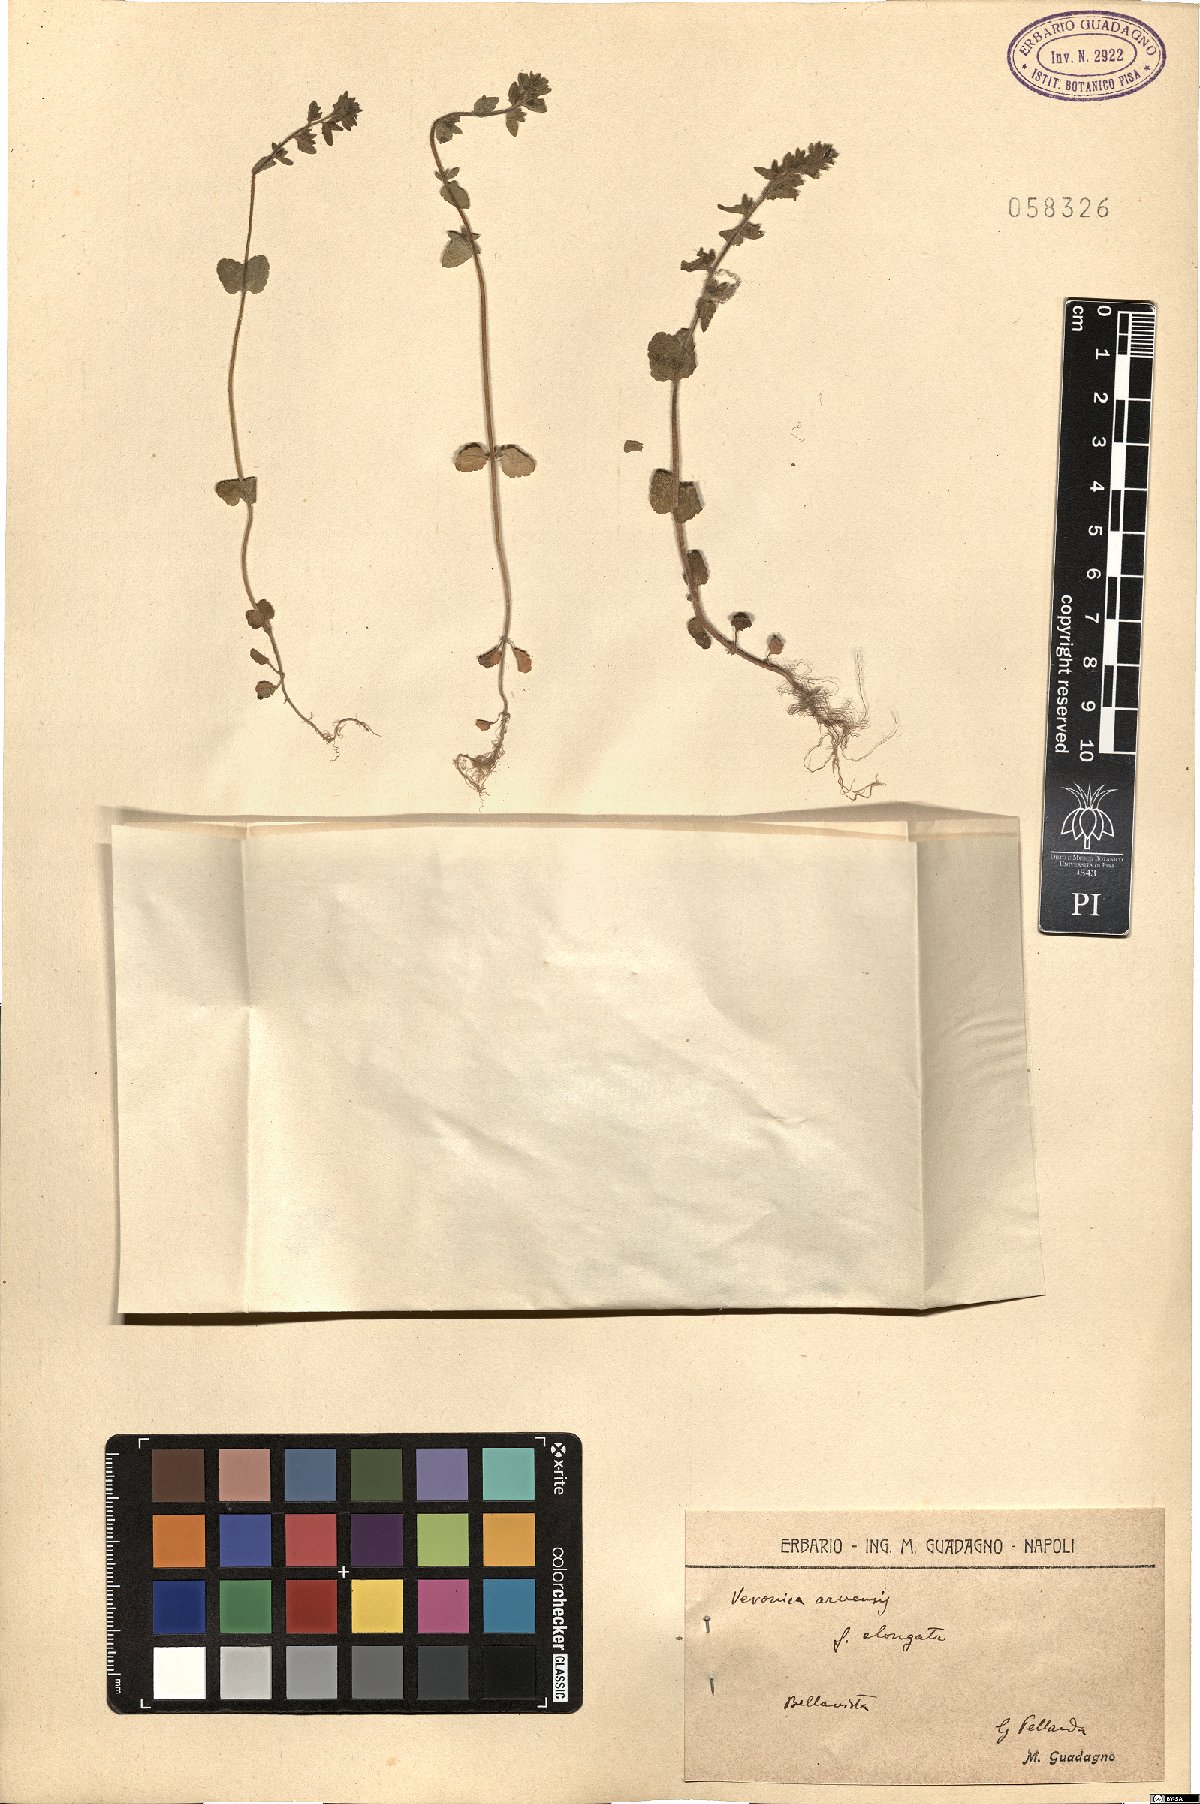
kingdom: Plantae
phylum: Tracheophyta
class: Magnoliopsida
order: Lamiales
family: Plantaginaceae
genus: Veronica
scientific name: Veronica arvensis
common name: Corn speedwell
